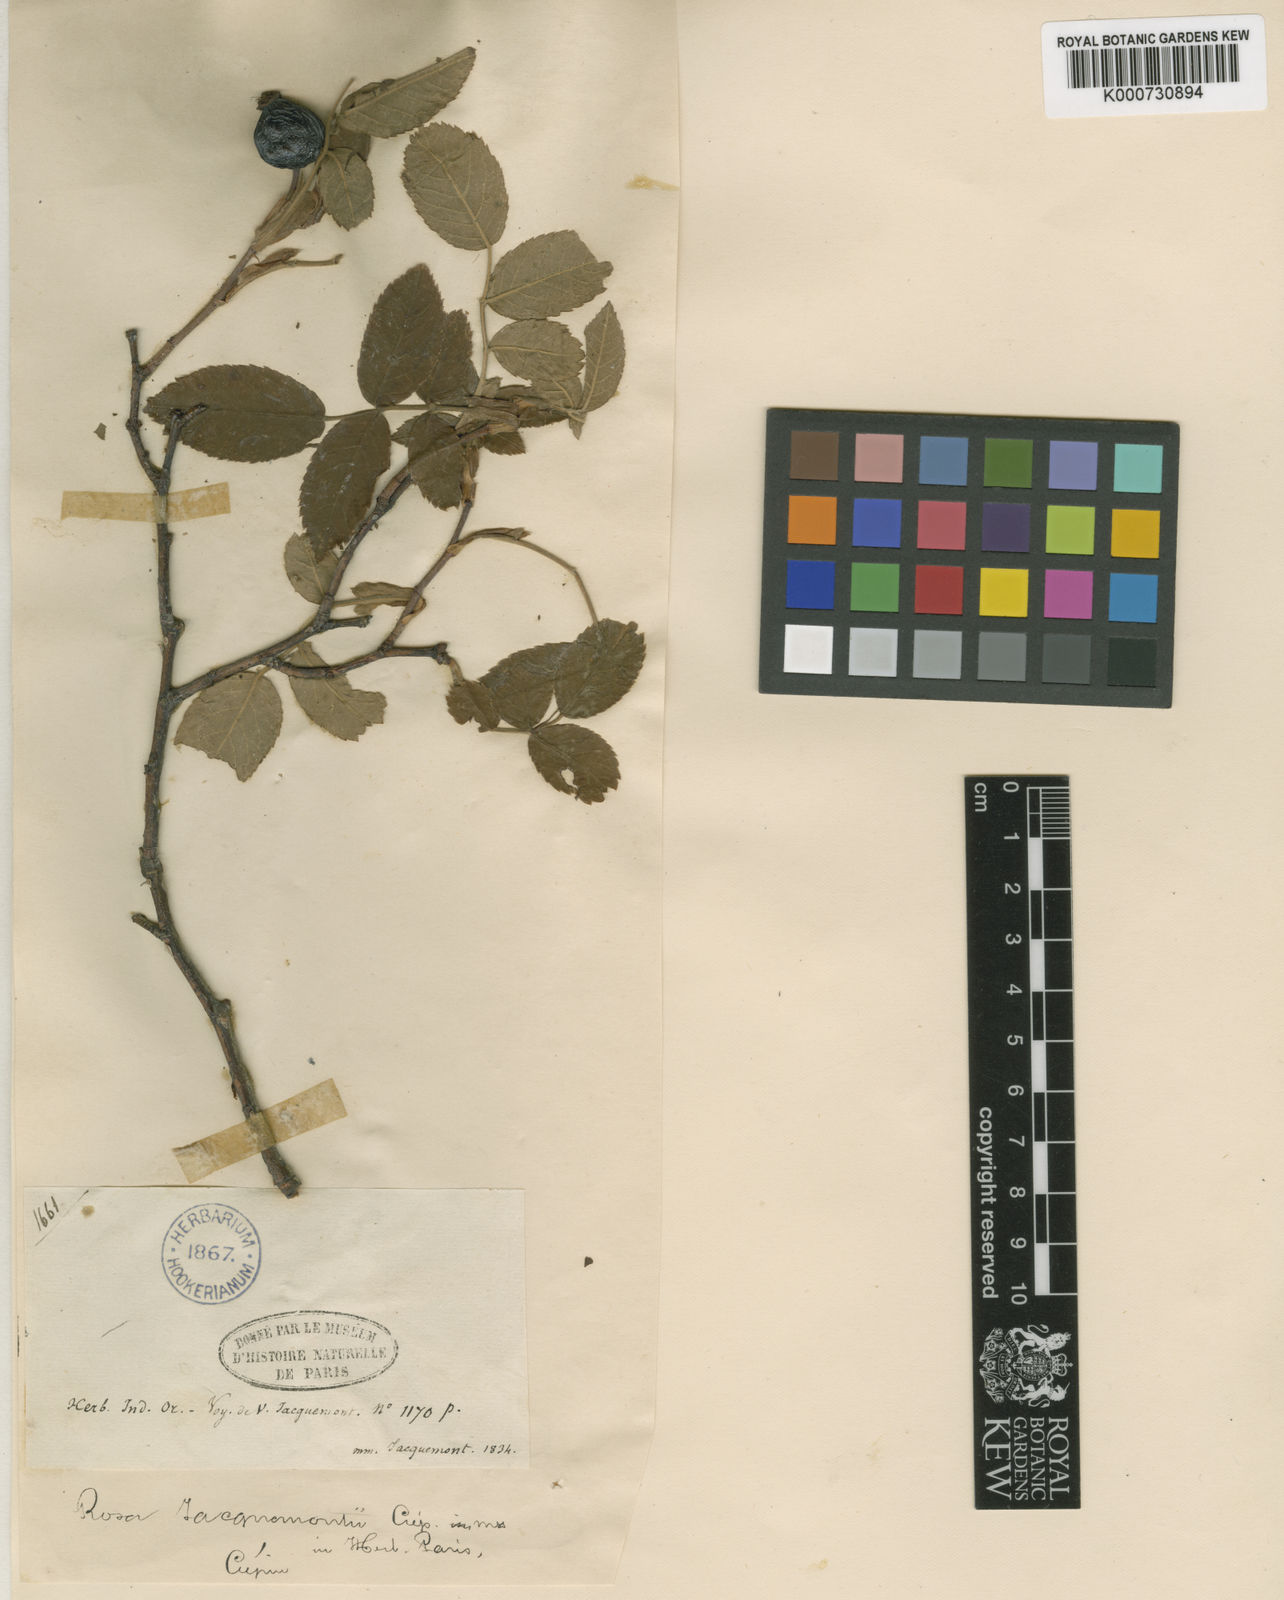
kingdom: Plantae
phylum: Tracheophyta
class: Magnoliopsida
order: Rosales
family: Rosaceae
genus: Rosa
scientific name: Rosa
